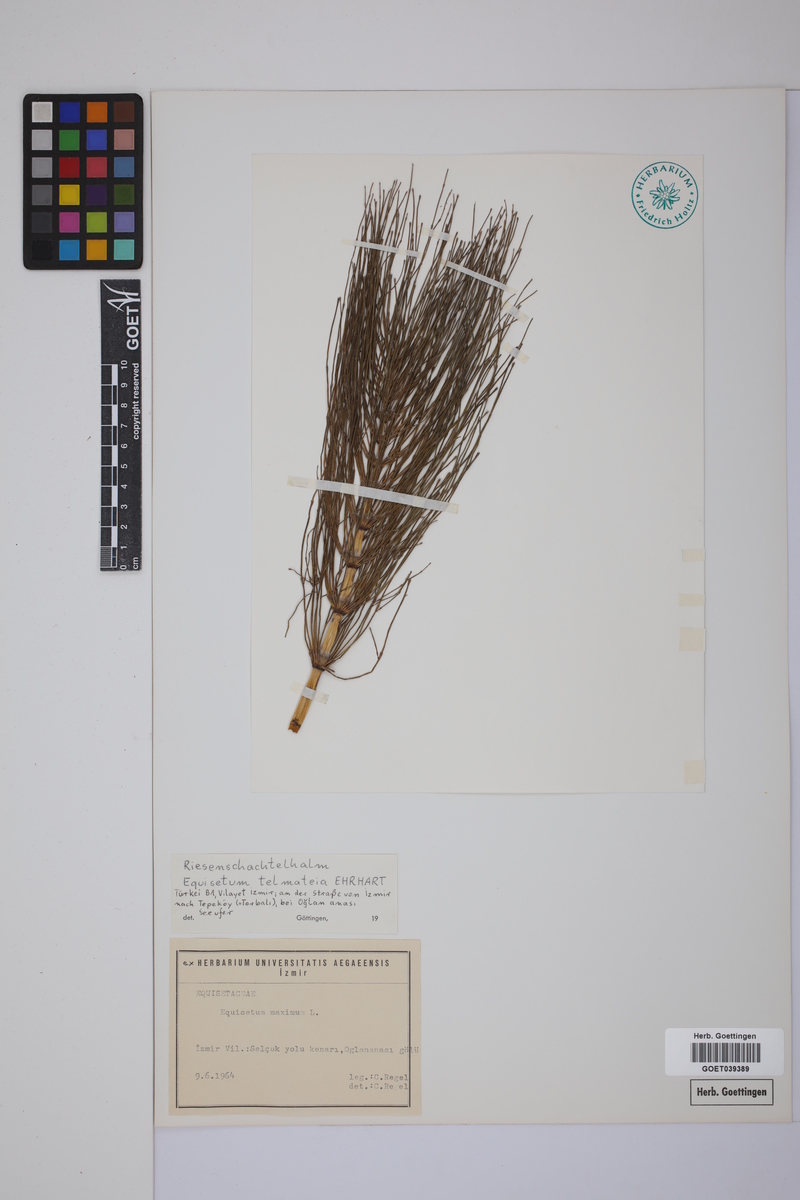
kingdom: Plantae
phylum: Tracheophyta
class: Polypodiopsida
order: Equisetales
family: Equisetaceae
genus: Equisetum
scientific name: Equisetum telmateia
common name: Great horsetail
